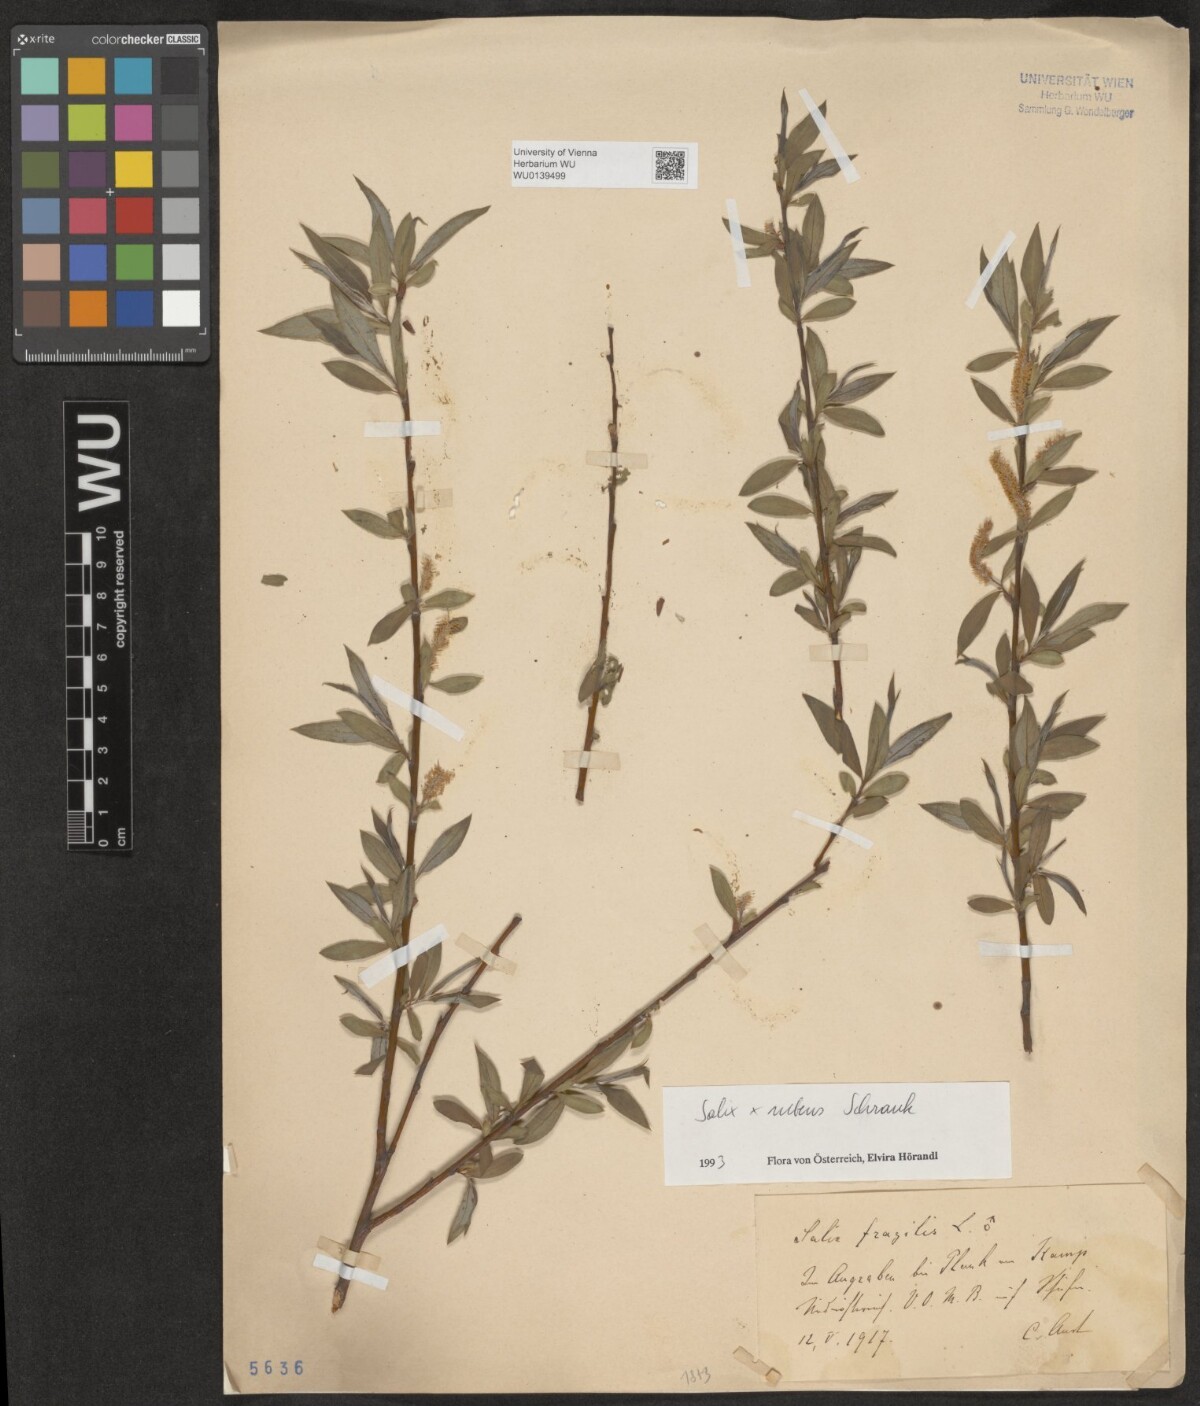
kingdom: Plantae
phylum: Tracheophyta
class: Magnoliopsida
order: Malpighiales
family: Salicaceae
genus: Salix
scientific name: Salix rubens
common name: Hybrid crack willow
